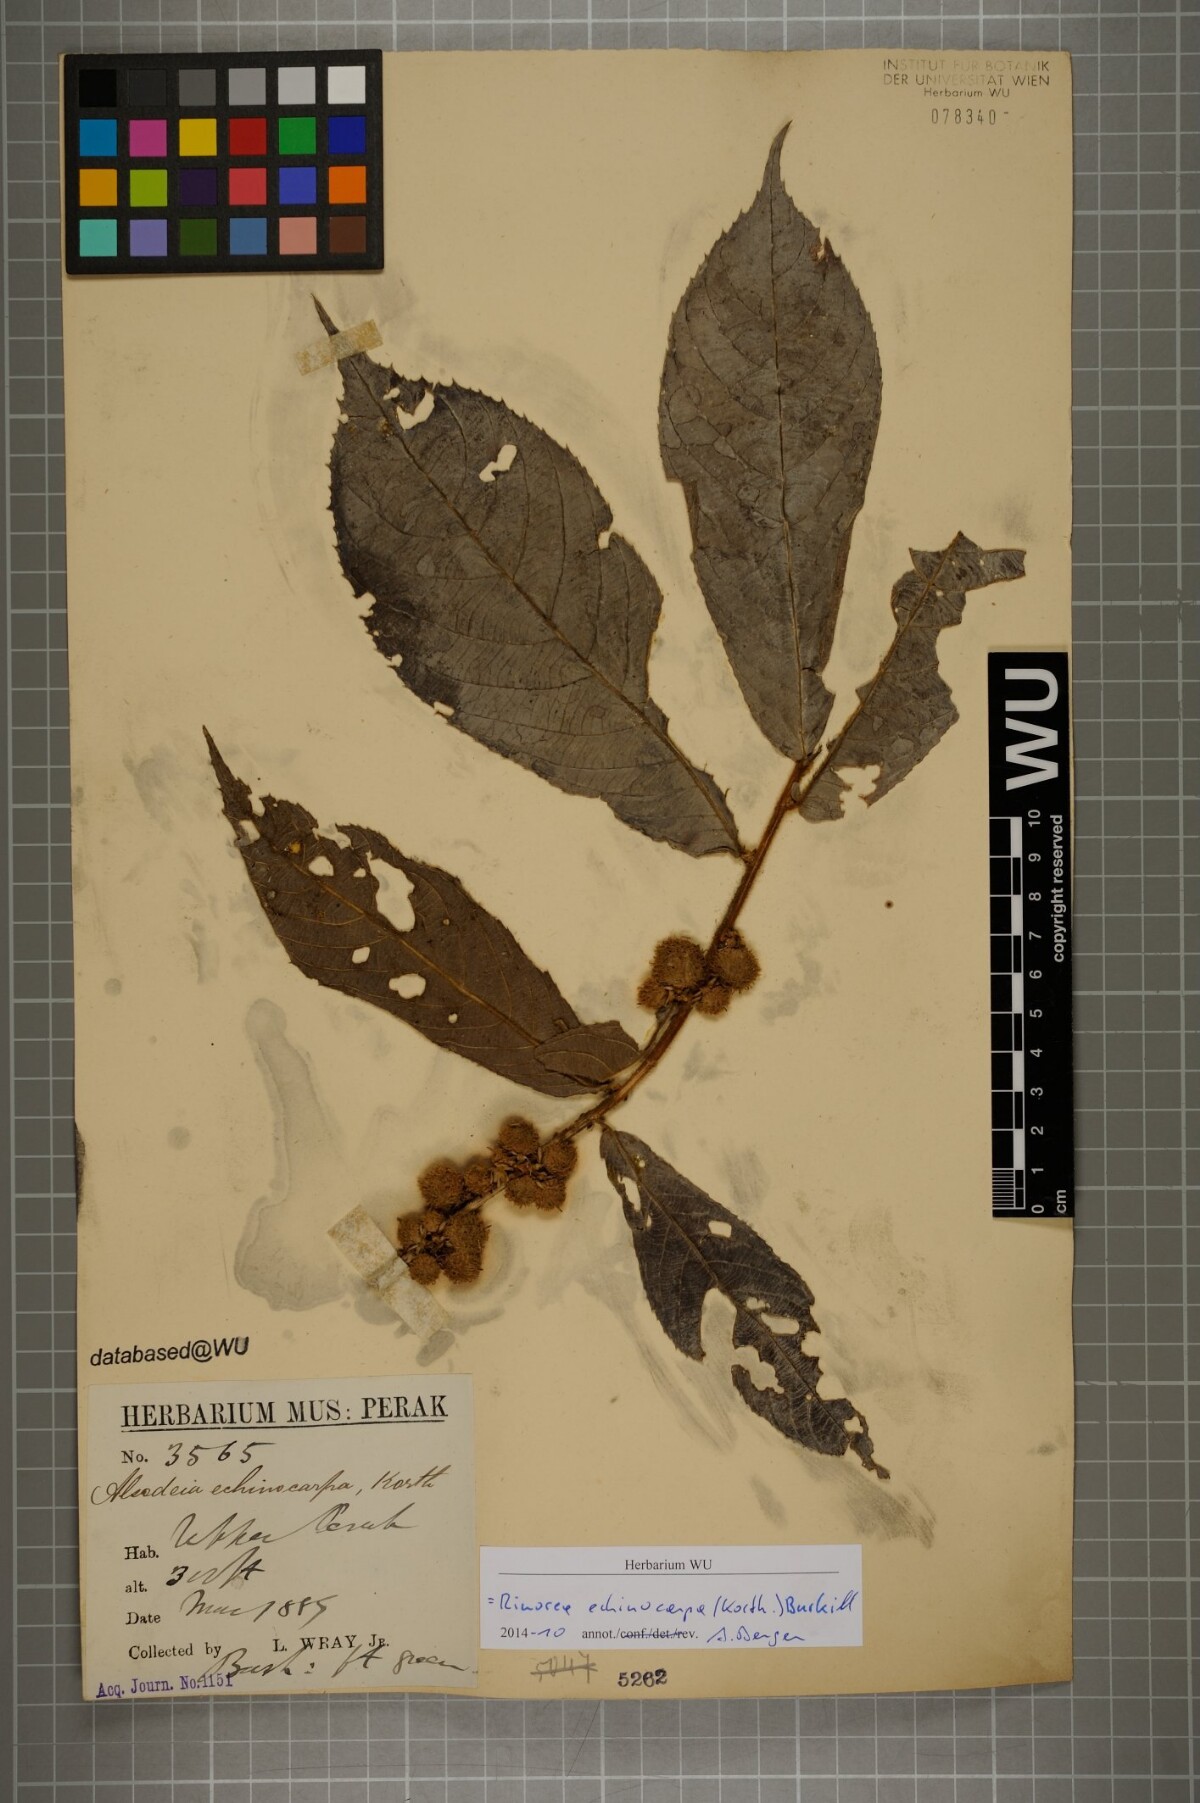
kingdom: Plantae
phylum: Tracheophyta
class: Magnoliopsida
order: Malpighiales
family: Violaceae
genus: Rinorea
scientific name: Rinorea anguifera
